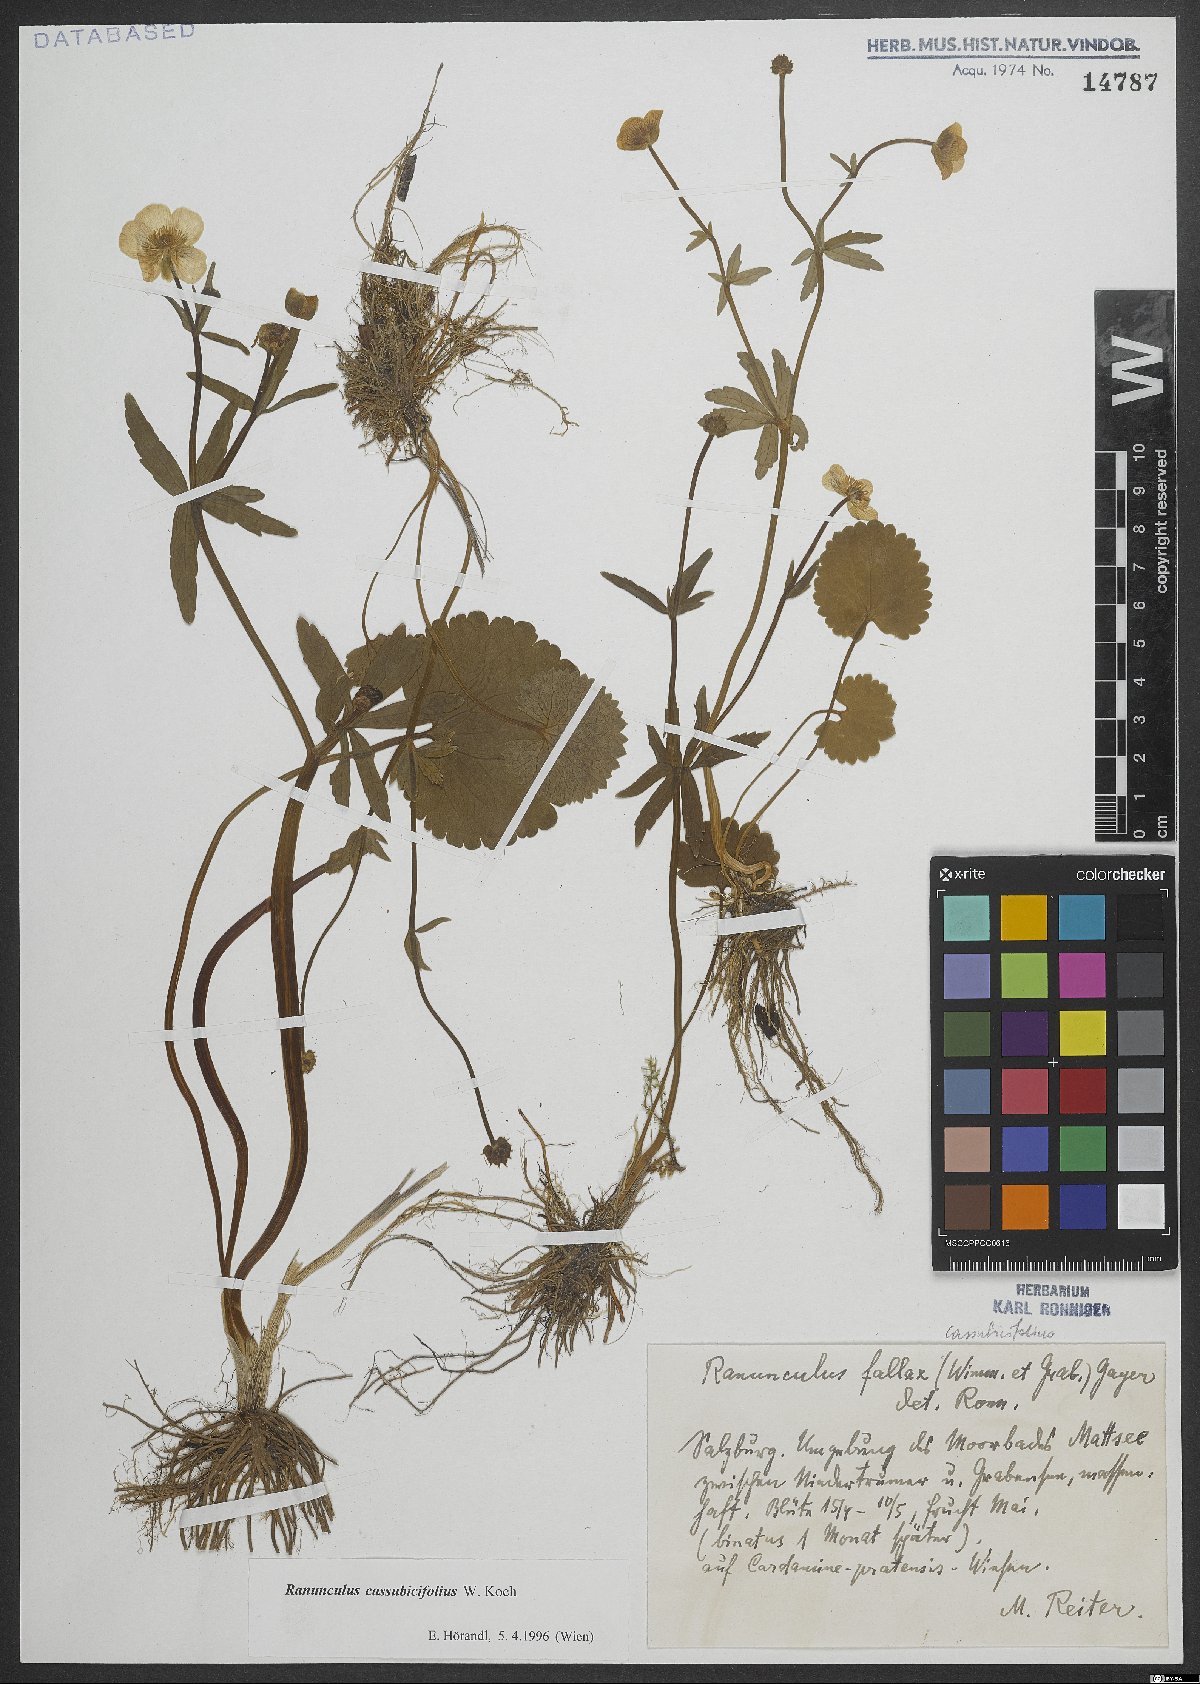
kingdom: Plantae
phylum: Tracheophyta
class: Magnoliopsida
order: Ranunculales
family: Ranunculaceae
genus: Ranunculus
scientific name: Ranunculus cassubicifolius
